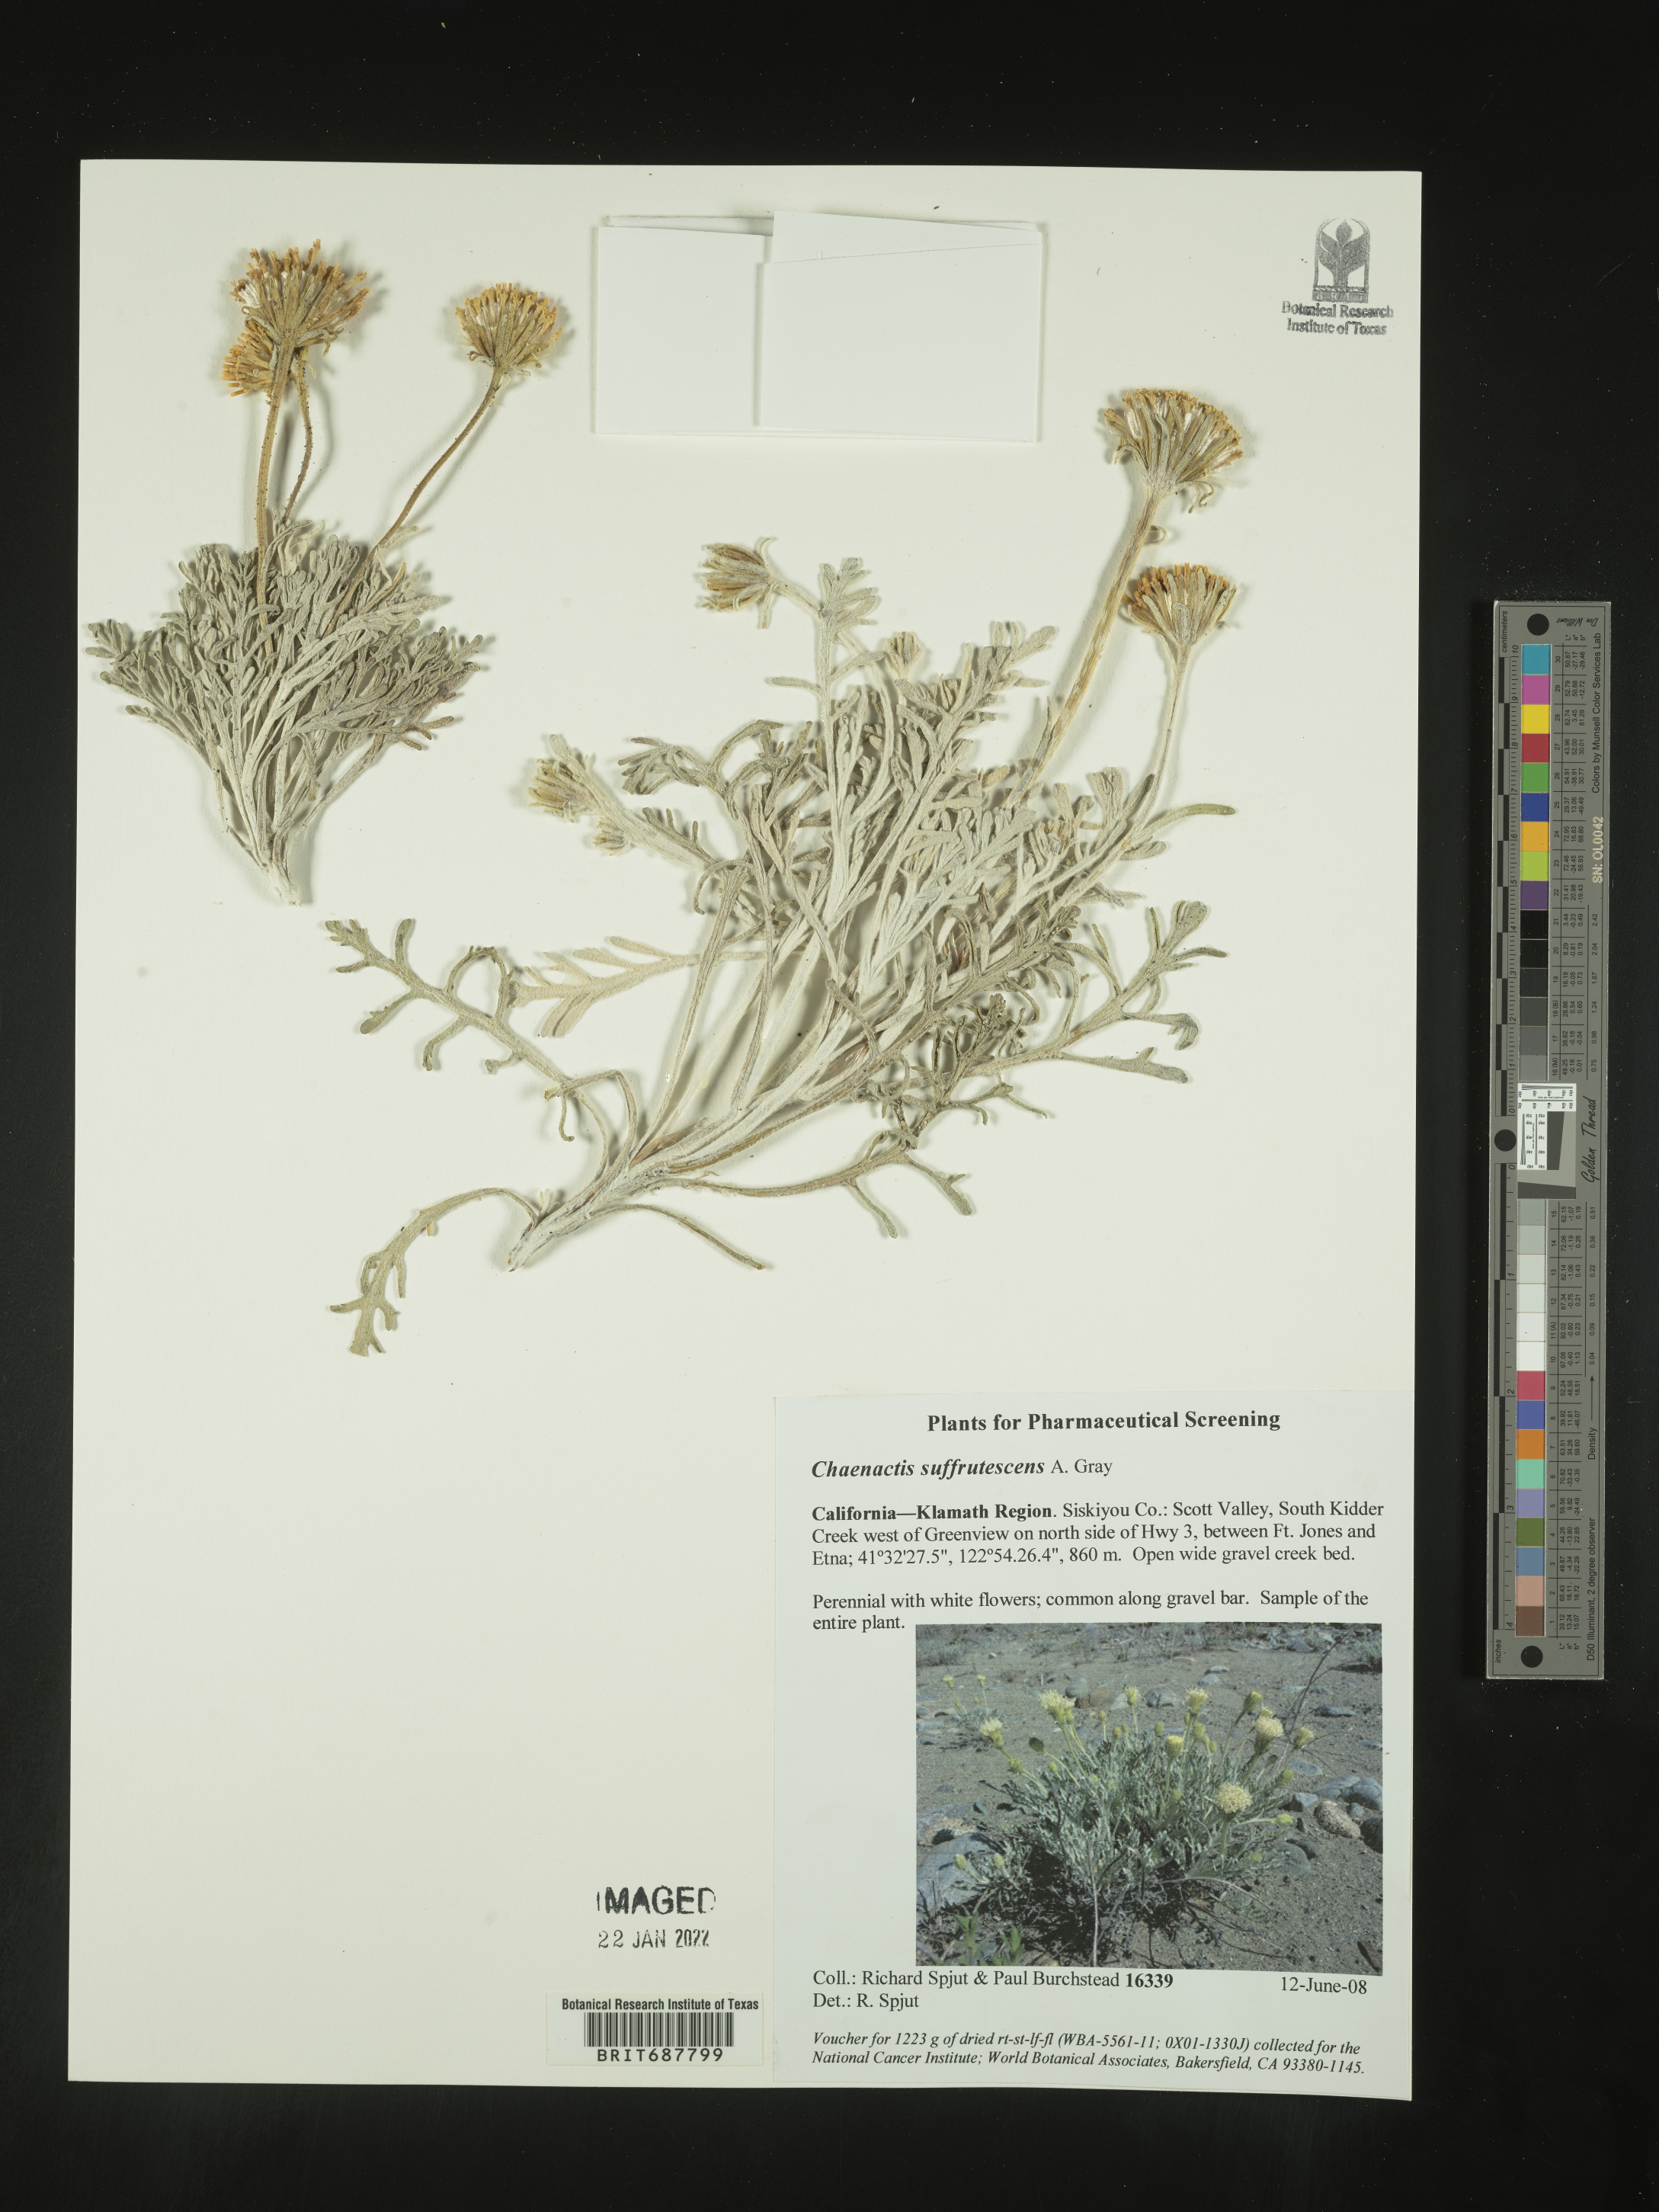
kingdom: Plantae
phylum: Tracheophyta
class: Magnoliopsida
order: Asterales
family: Asteraceae
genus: Chaenactis
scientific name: Chaenactis suffrutescens
